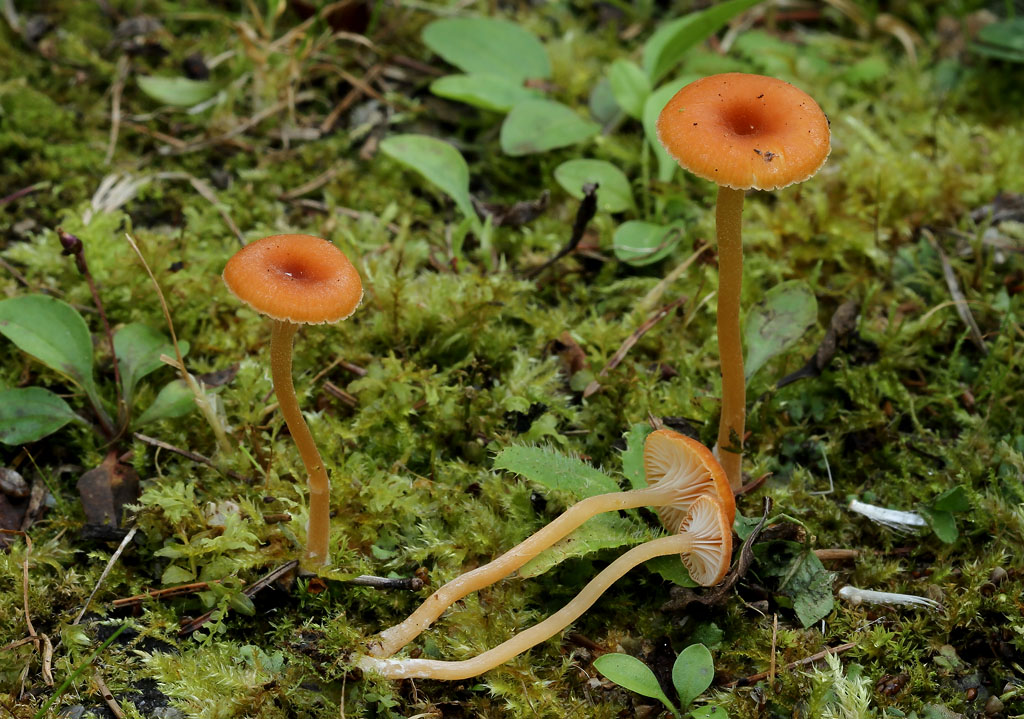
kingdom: Fungi
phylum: Basidiomycota
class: Agaricomycetes
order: Hymenochaetales
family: Rickenellaceae
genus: Loreleia
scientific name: Loreleia postii
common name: brandplet-mosnavlehat
